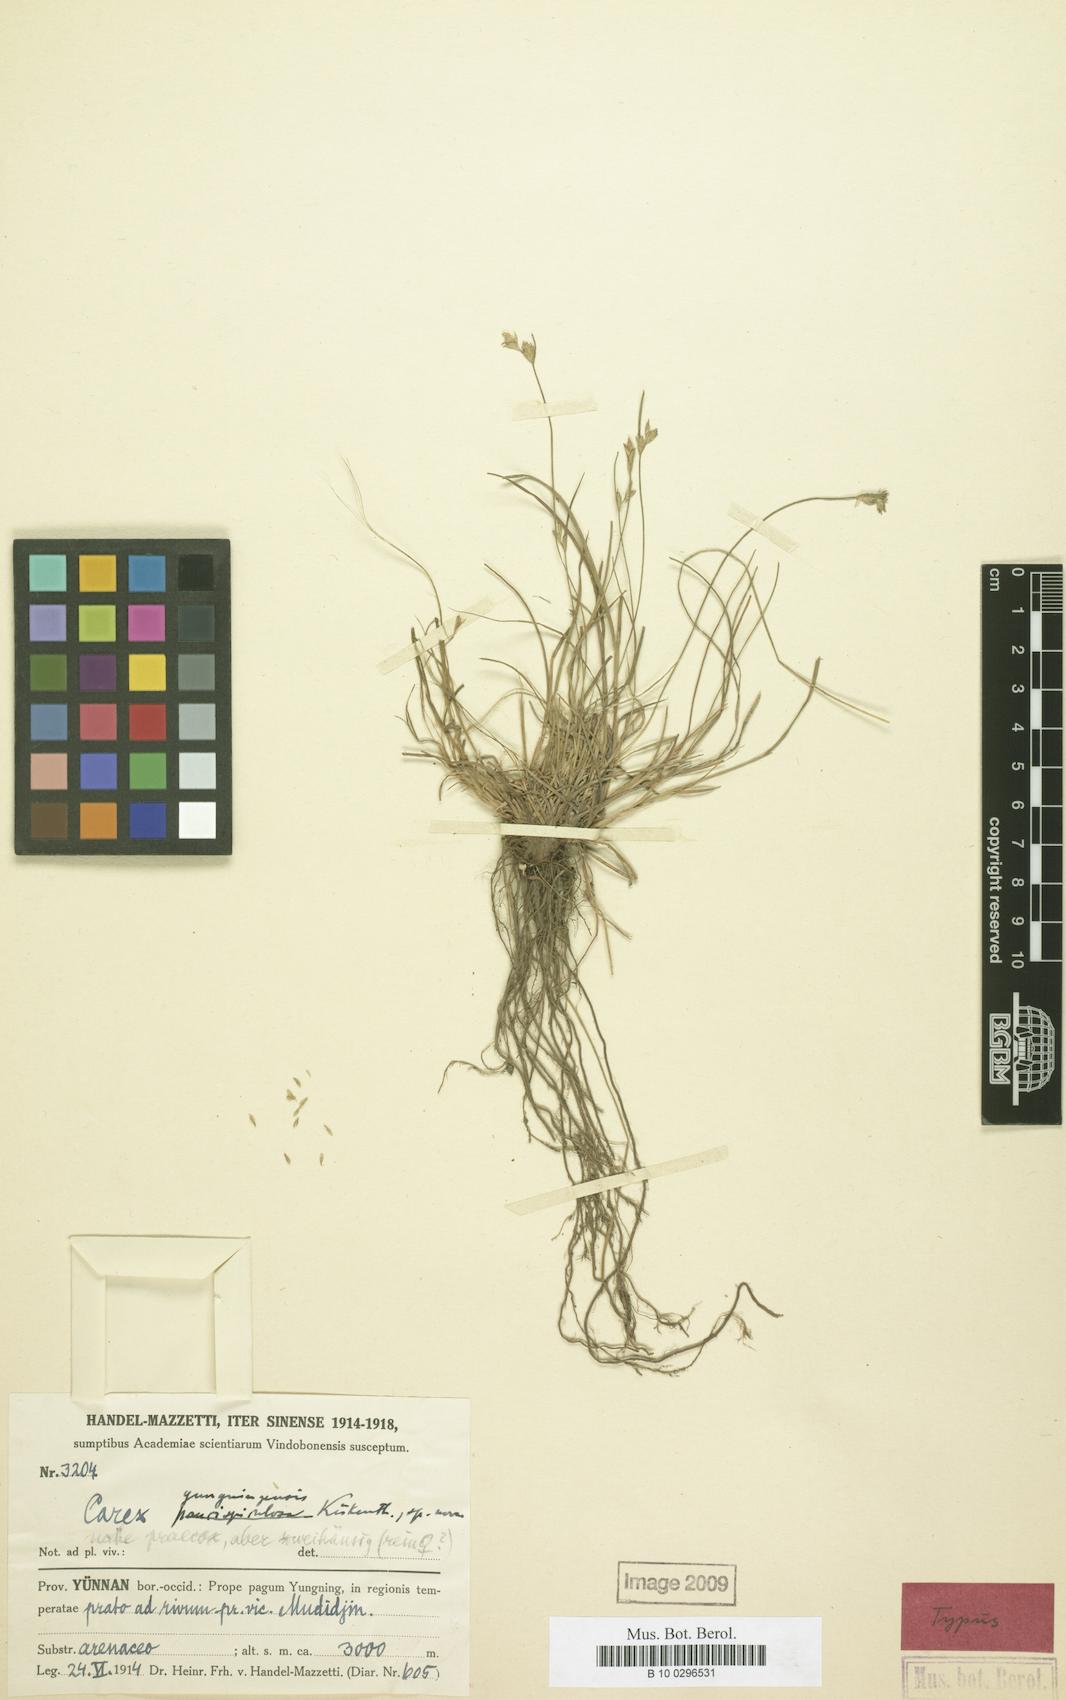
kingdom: Plantae
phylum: Tracheophyta
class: Liliopsida
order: Poales
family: Cyperaceae
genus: Carex
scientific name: Carex fluviatilis
